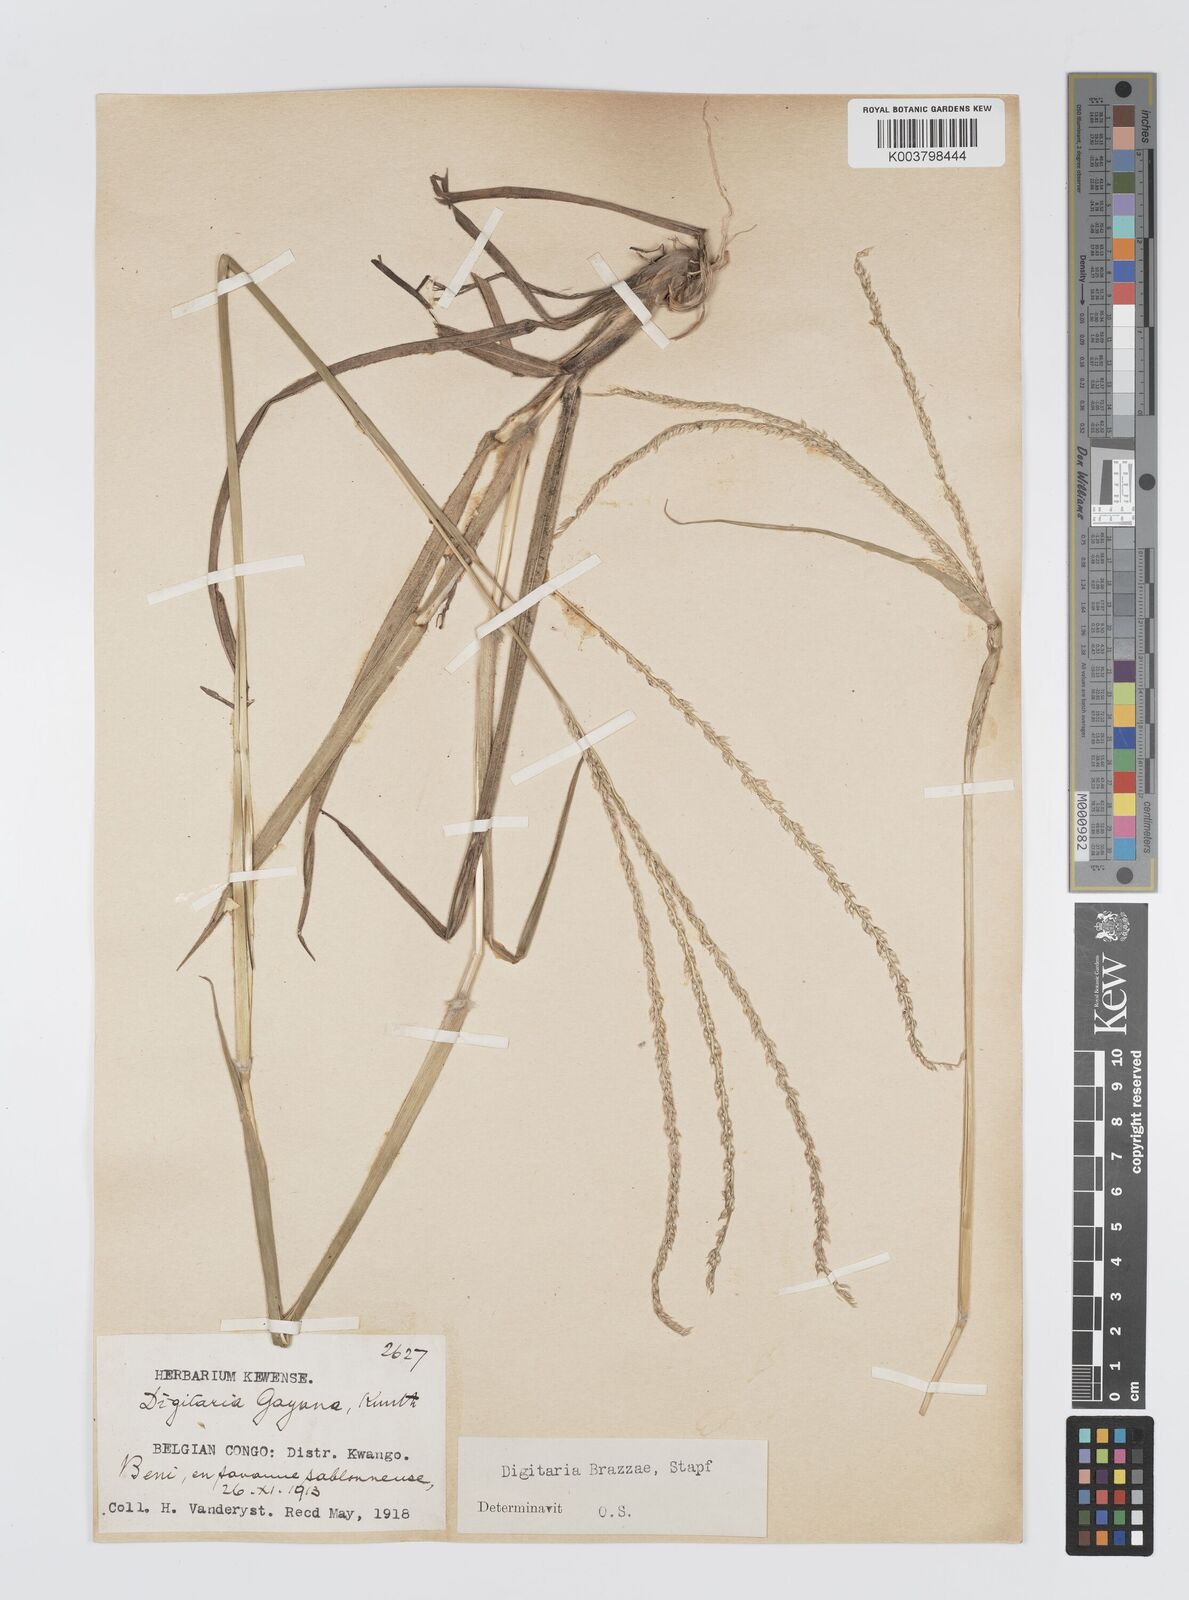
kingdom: Plantae
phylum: Tracheophyta
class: Liliopsida
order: Poales
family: Poaceae
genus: Digitaria
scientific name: Digitaria brazzae
